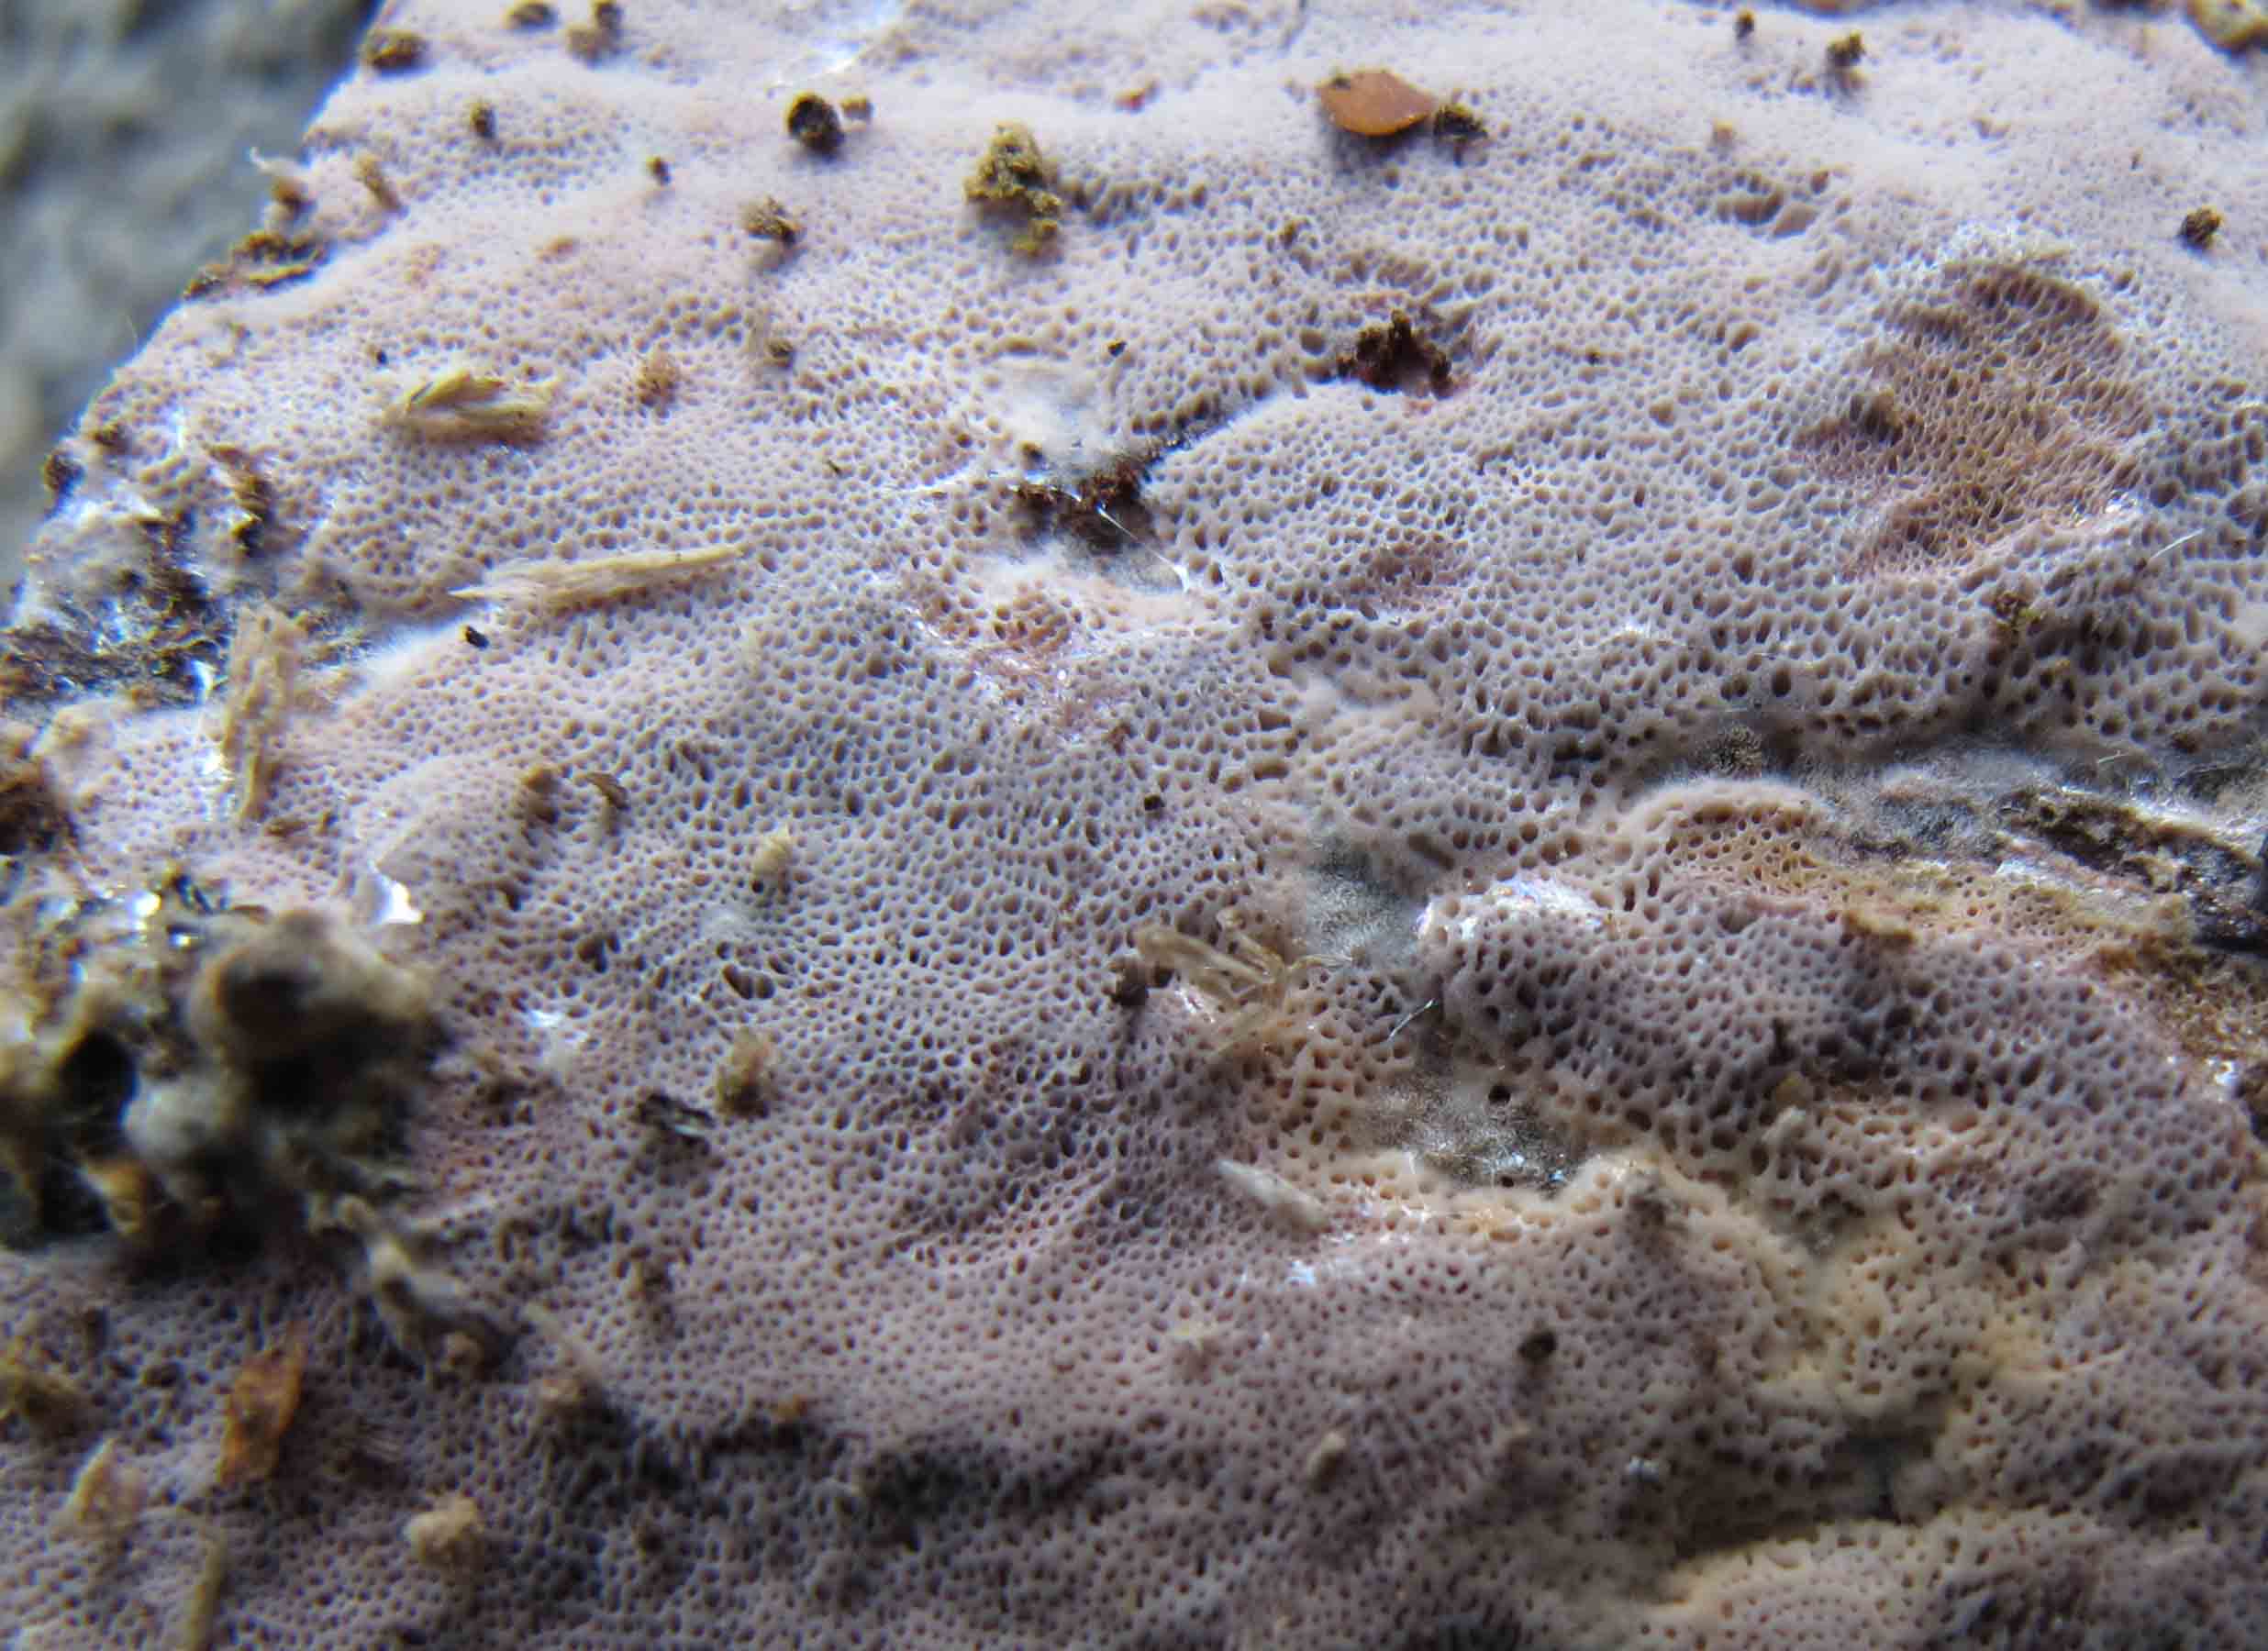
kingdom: Fungi
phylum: Basidiomycota
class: Agaricomycetes
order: Polyporales
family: Irpicaceae
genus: Ceriporia
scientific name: Ceriporia excelsa
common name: lilla voksporesvamp
